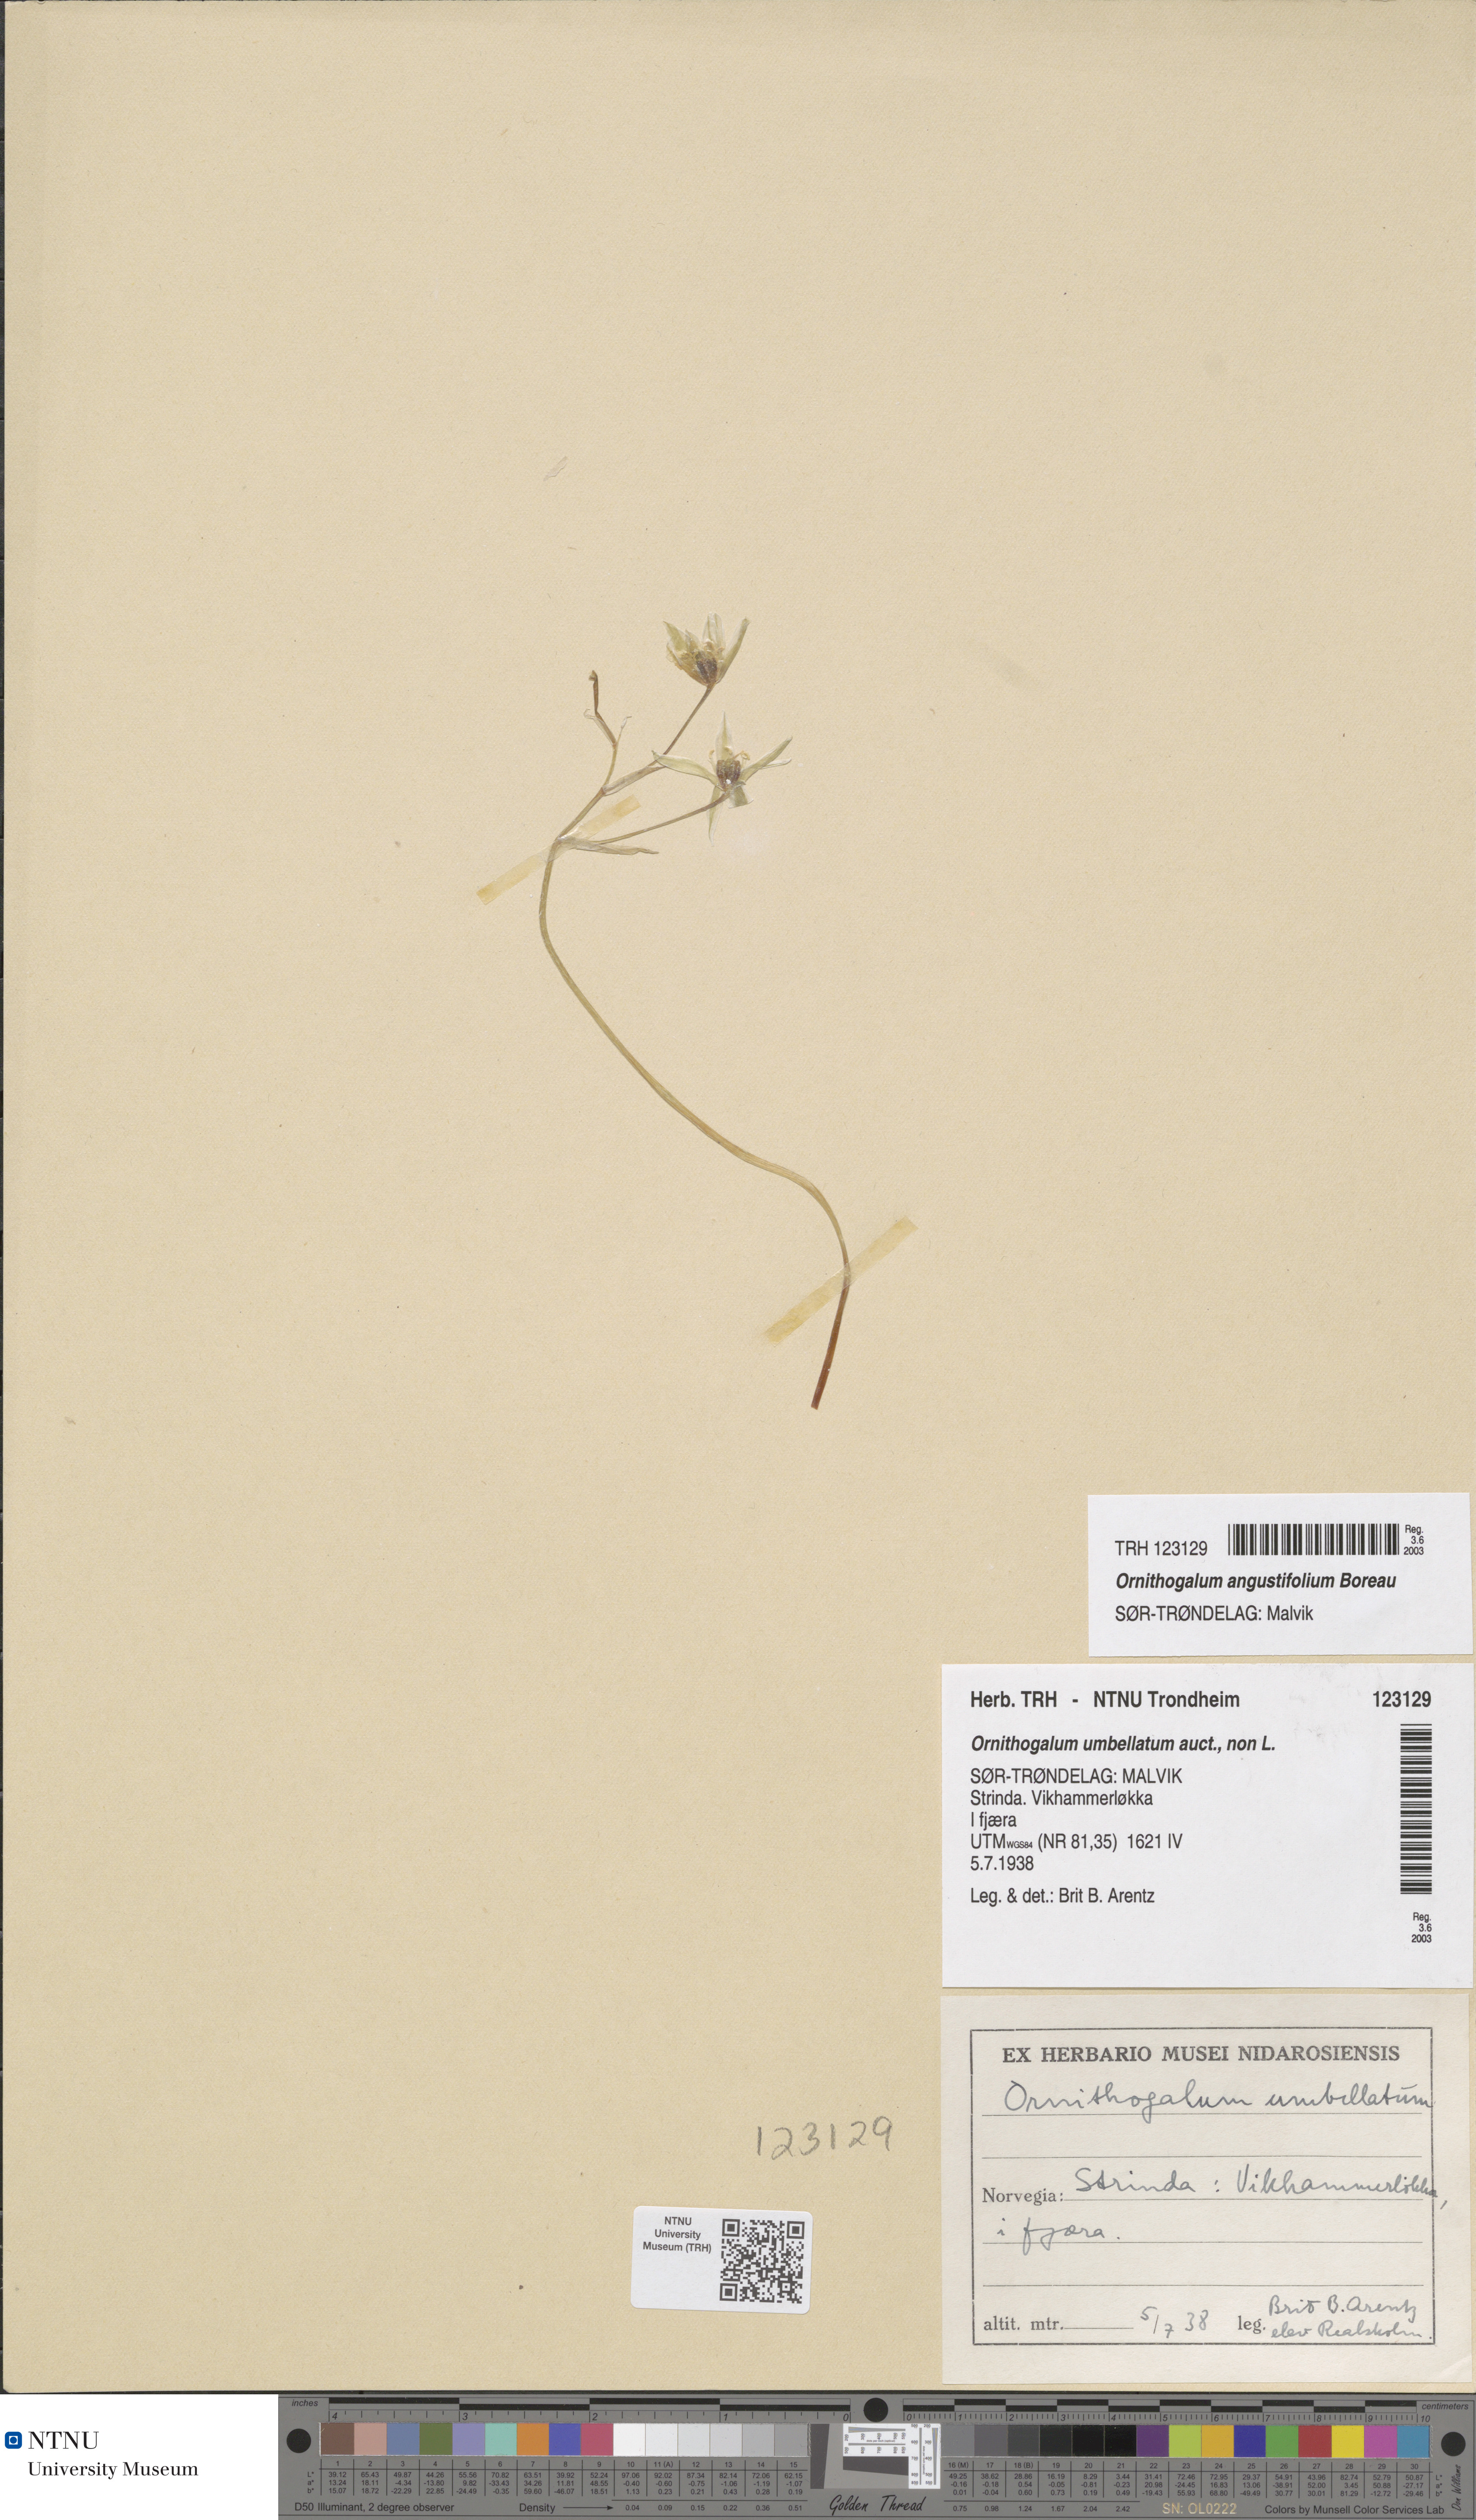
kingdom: Plantae
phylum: Tracheophyta
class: Liliopsida
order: Asparagales
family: Asparagaceae
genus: Ornithogalum
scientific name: Ornithogalum umbellatum
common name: Garden star-of-bethlehem
